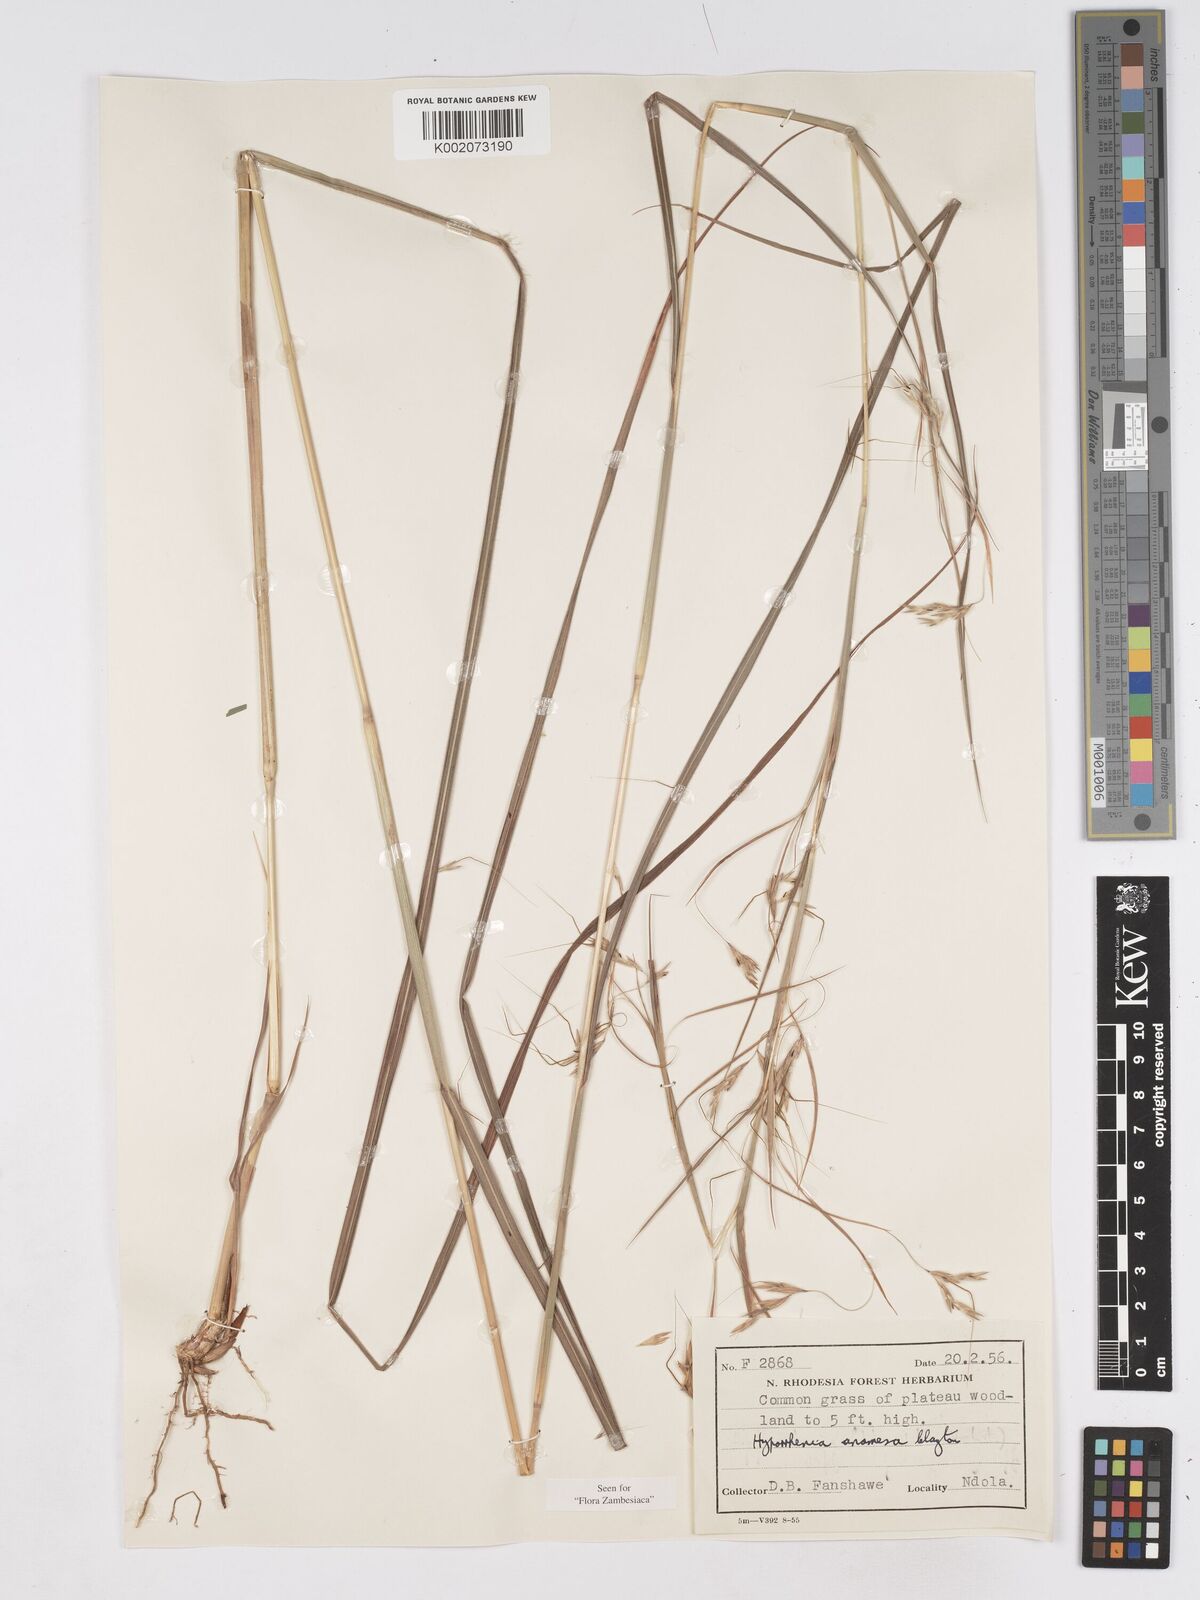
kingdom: Plantae
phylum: Tracheophyta
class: Liliopsida
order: Poales
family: Poaceae
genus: Hyparrhenia
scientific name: Hyparrhenia anamesa
